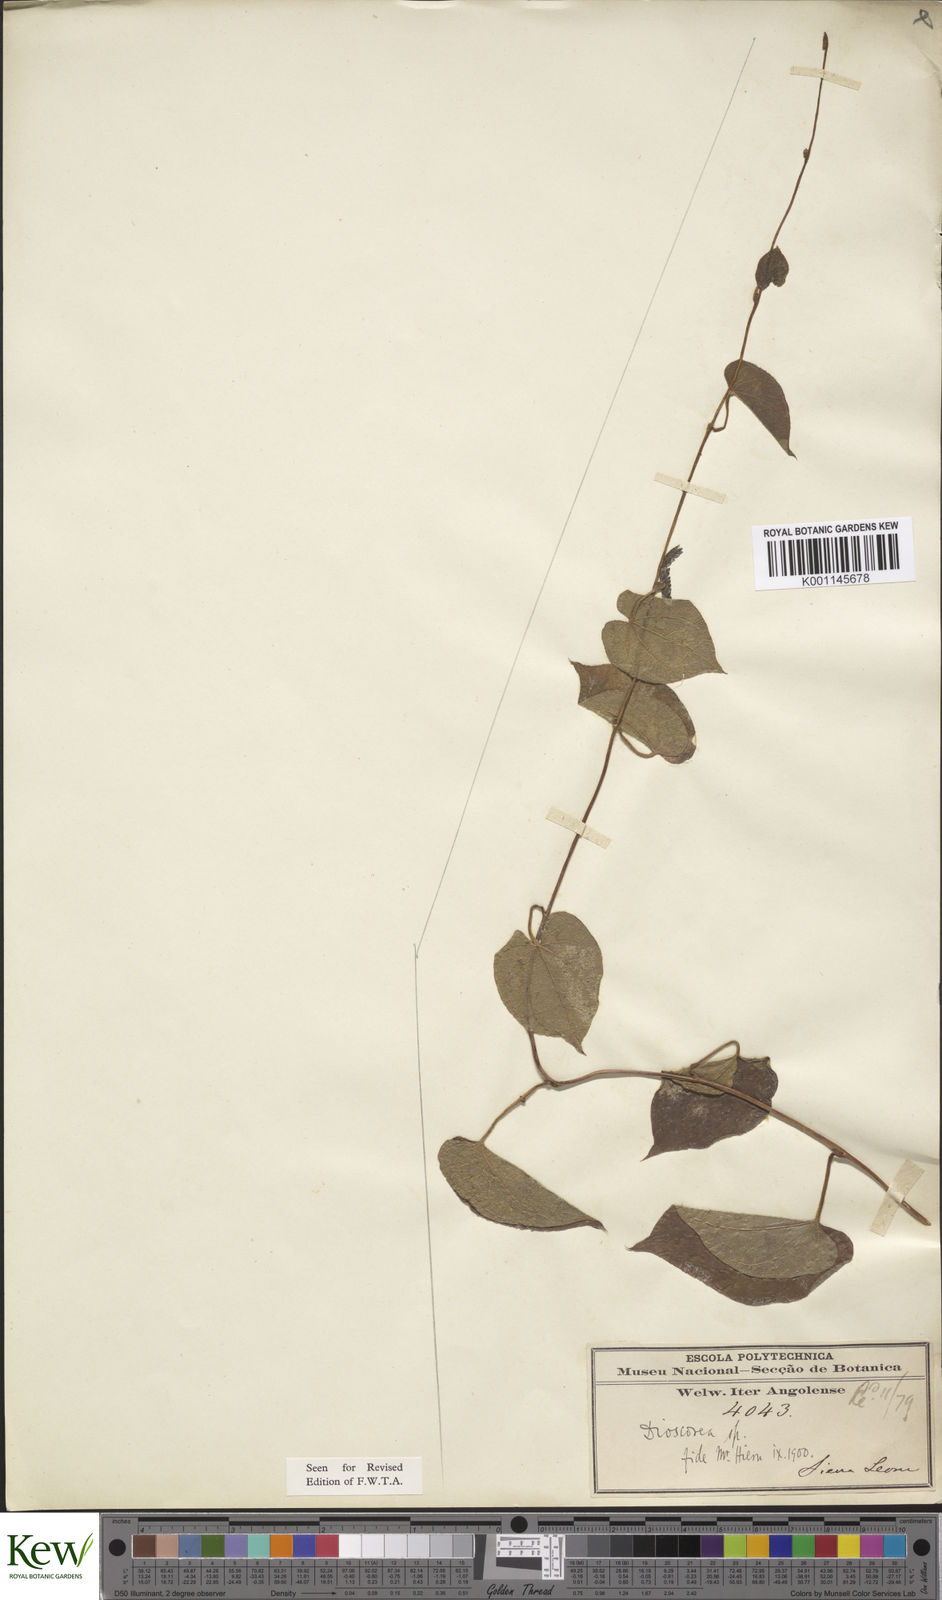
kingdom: Plantae
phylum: Tracheophyta
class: Liliopsida
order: Dioscoreales
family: Dioscoreaceae
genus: Dioscorea
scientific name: Dioscorea hirtiflora
